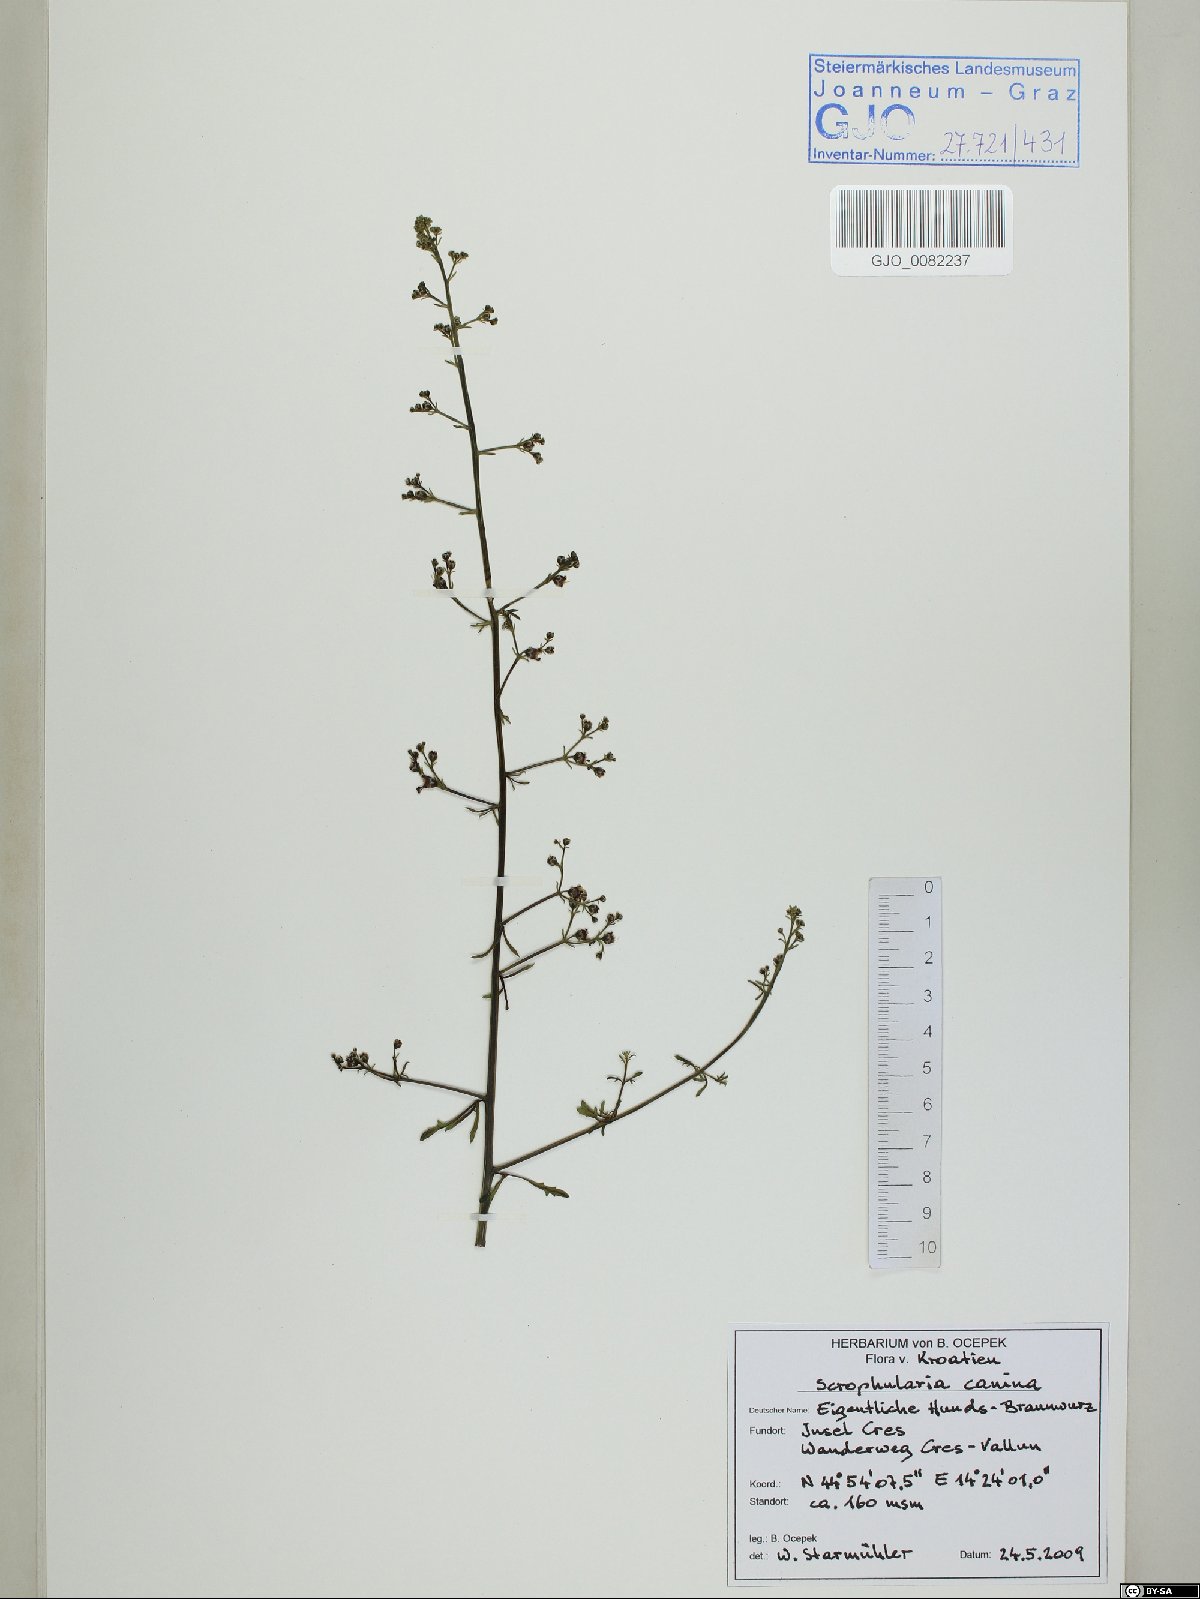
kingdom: Plantae
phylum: Tracheophyta
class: Magnoliopsida
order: Lamiales
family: Scrophulariaceae
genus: Scrophularia
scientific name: Scrophularia canina
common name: French figwort
